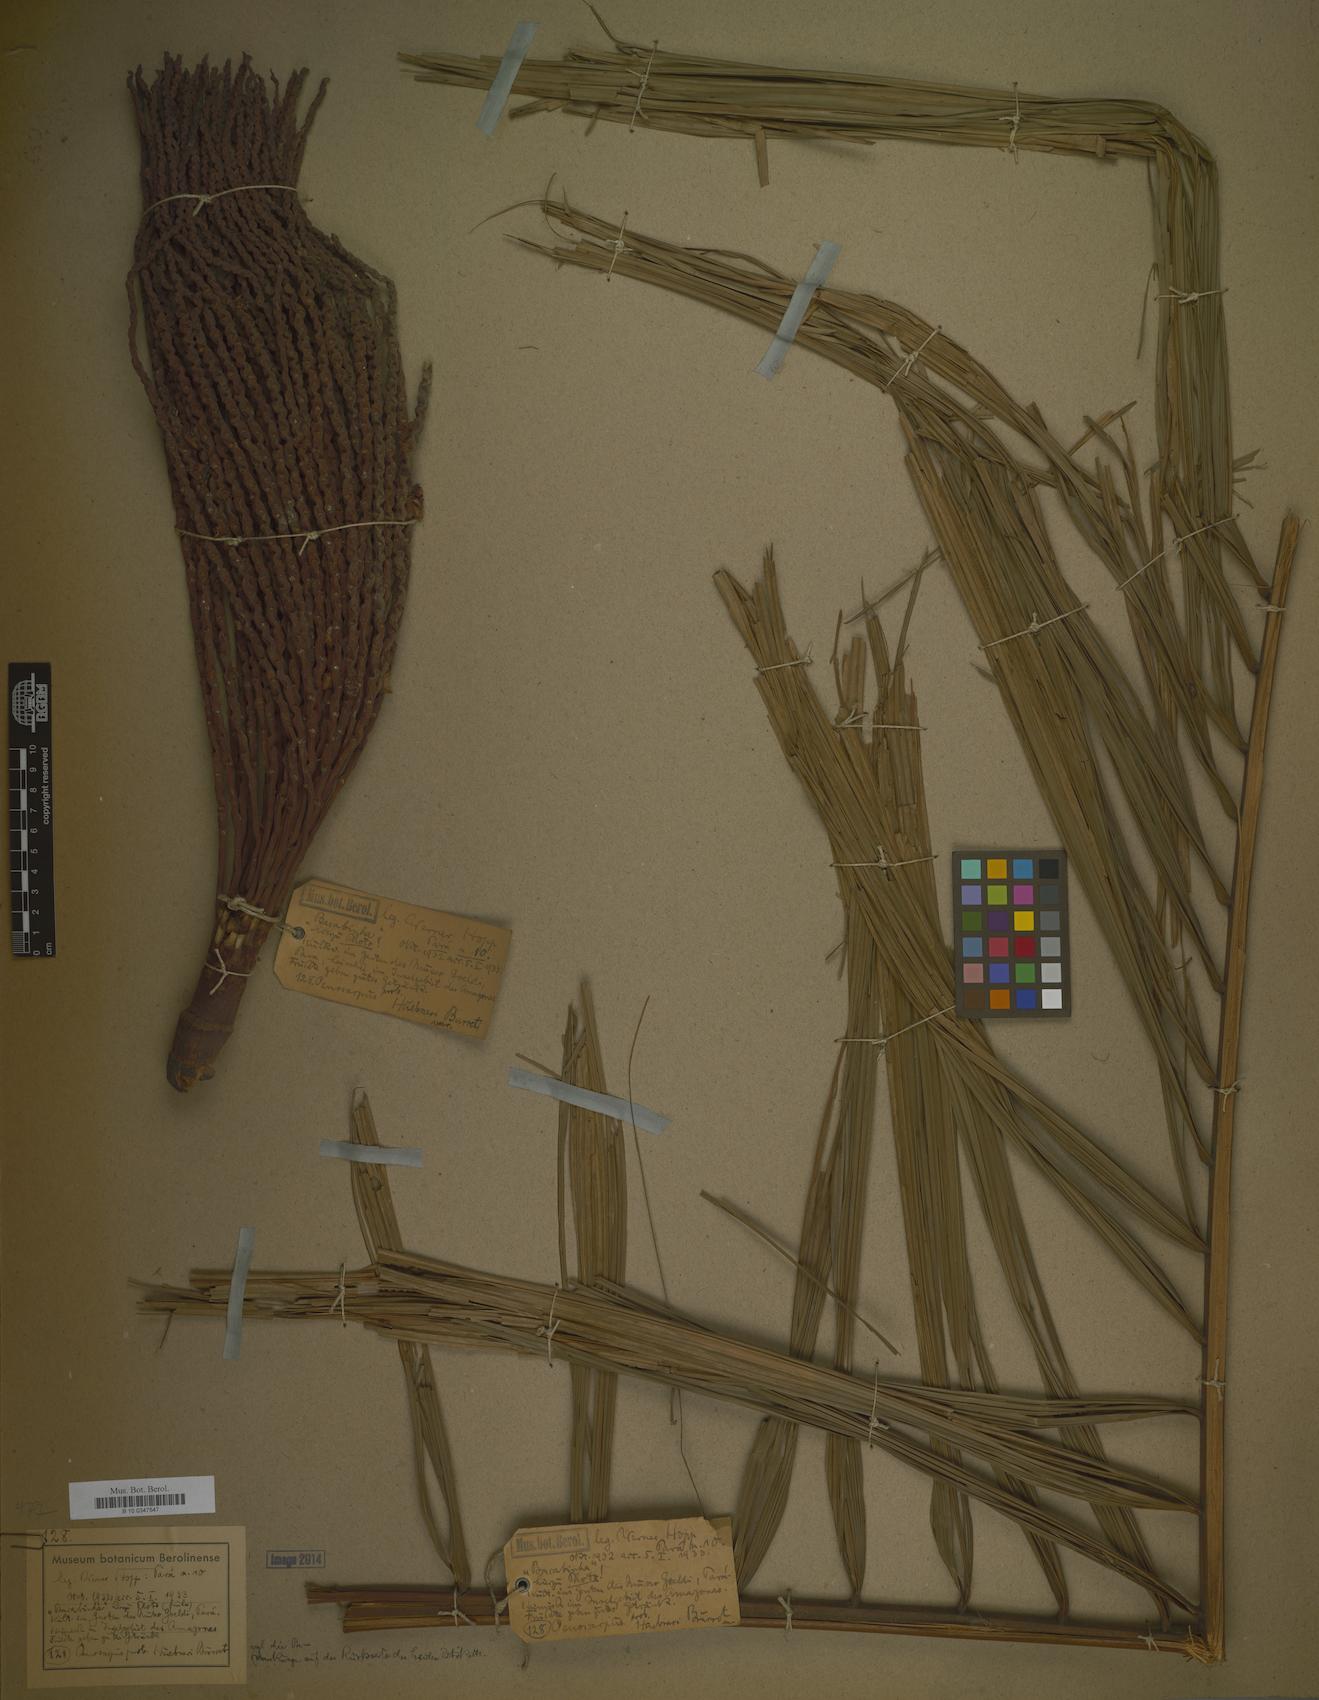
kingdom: Plantae
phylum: Tracheophyta
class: Liliopsida
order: Arecales
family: Arecaceae
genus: Oenocarpus
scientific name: Oenocarpus minor
